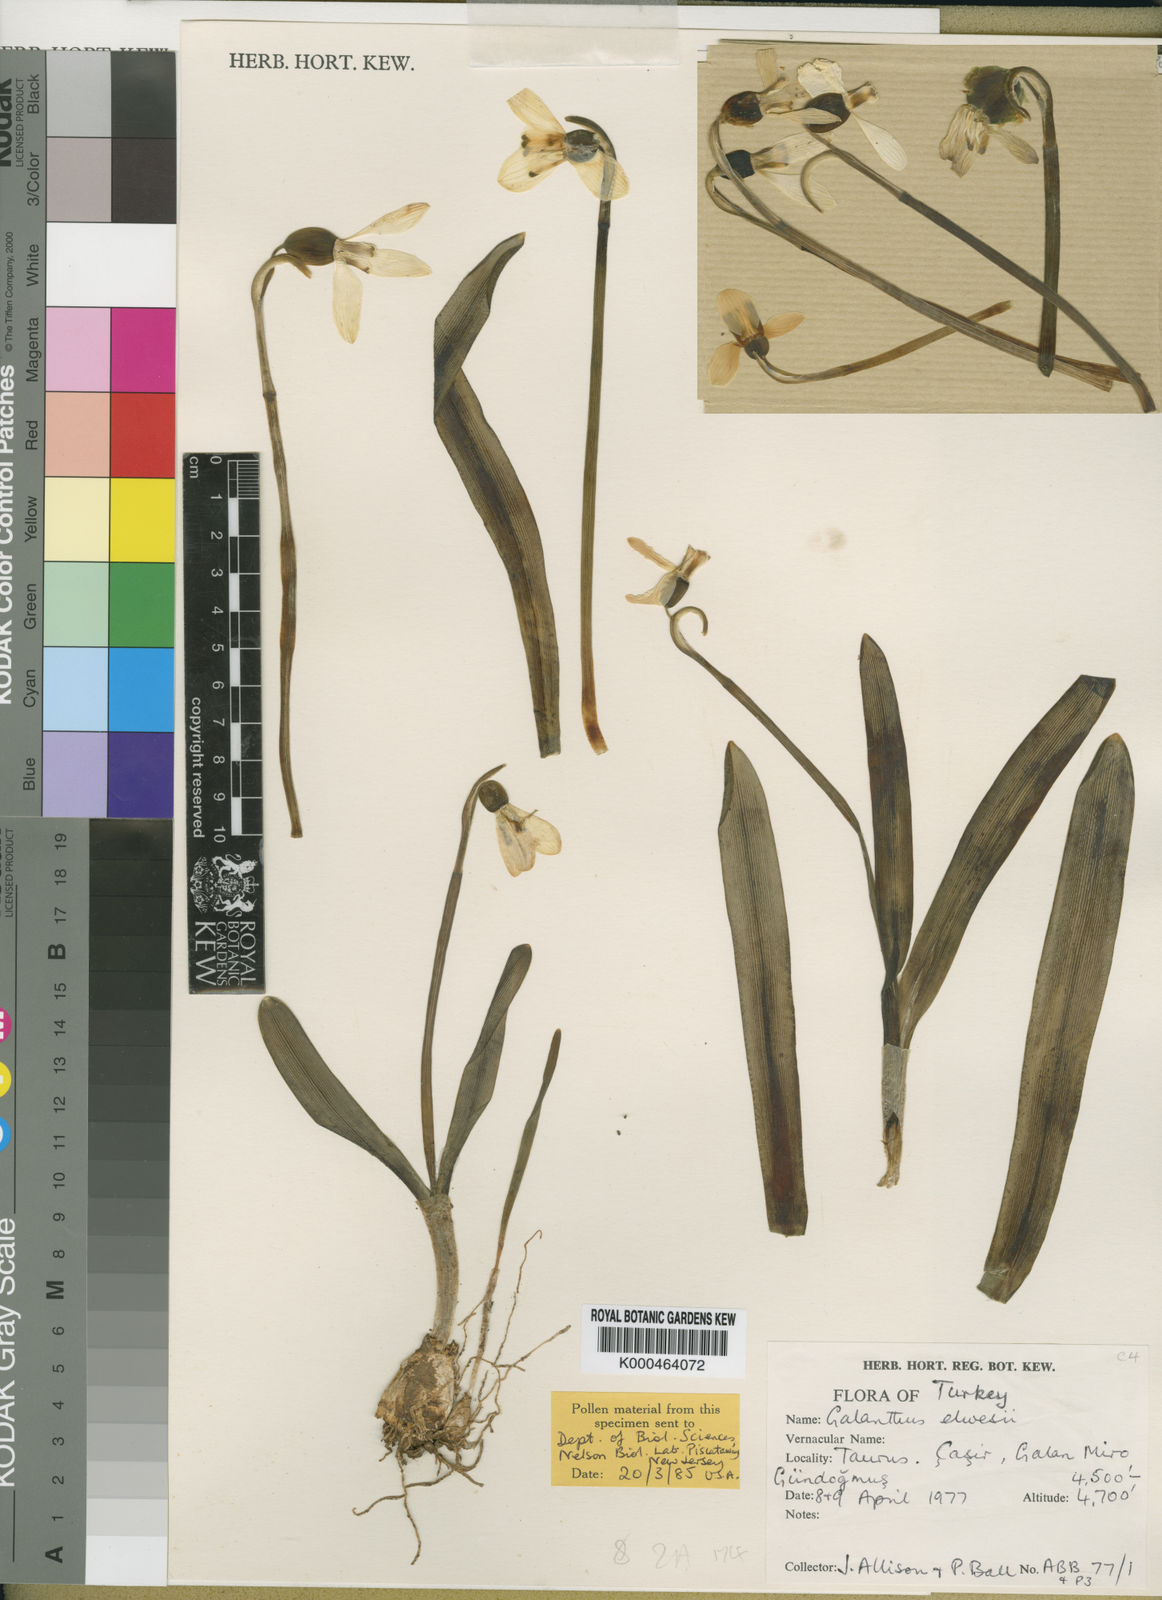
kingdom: Plantae
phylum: Tracheophyta
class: Liliopsida
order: Asparagales
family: Amaryllidaceae
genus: Galanthus
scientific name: Galanthus elwesii
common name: Greater snowdrop
